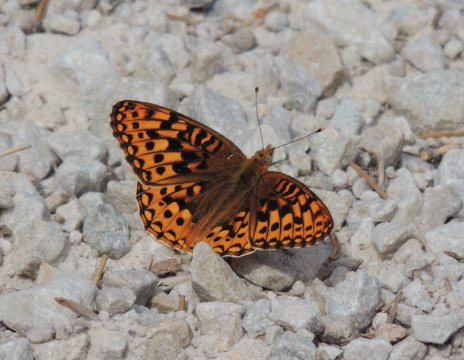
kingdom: Animalia
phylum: Arthropoda
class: Insecta
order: Lepidoptera
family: Nymphalidae
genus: Speyeria
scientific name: Speyeria hydaspe
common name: Hydaspe Fritillary
